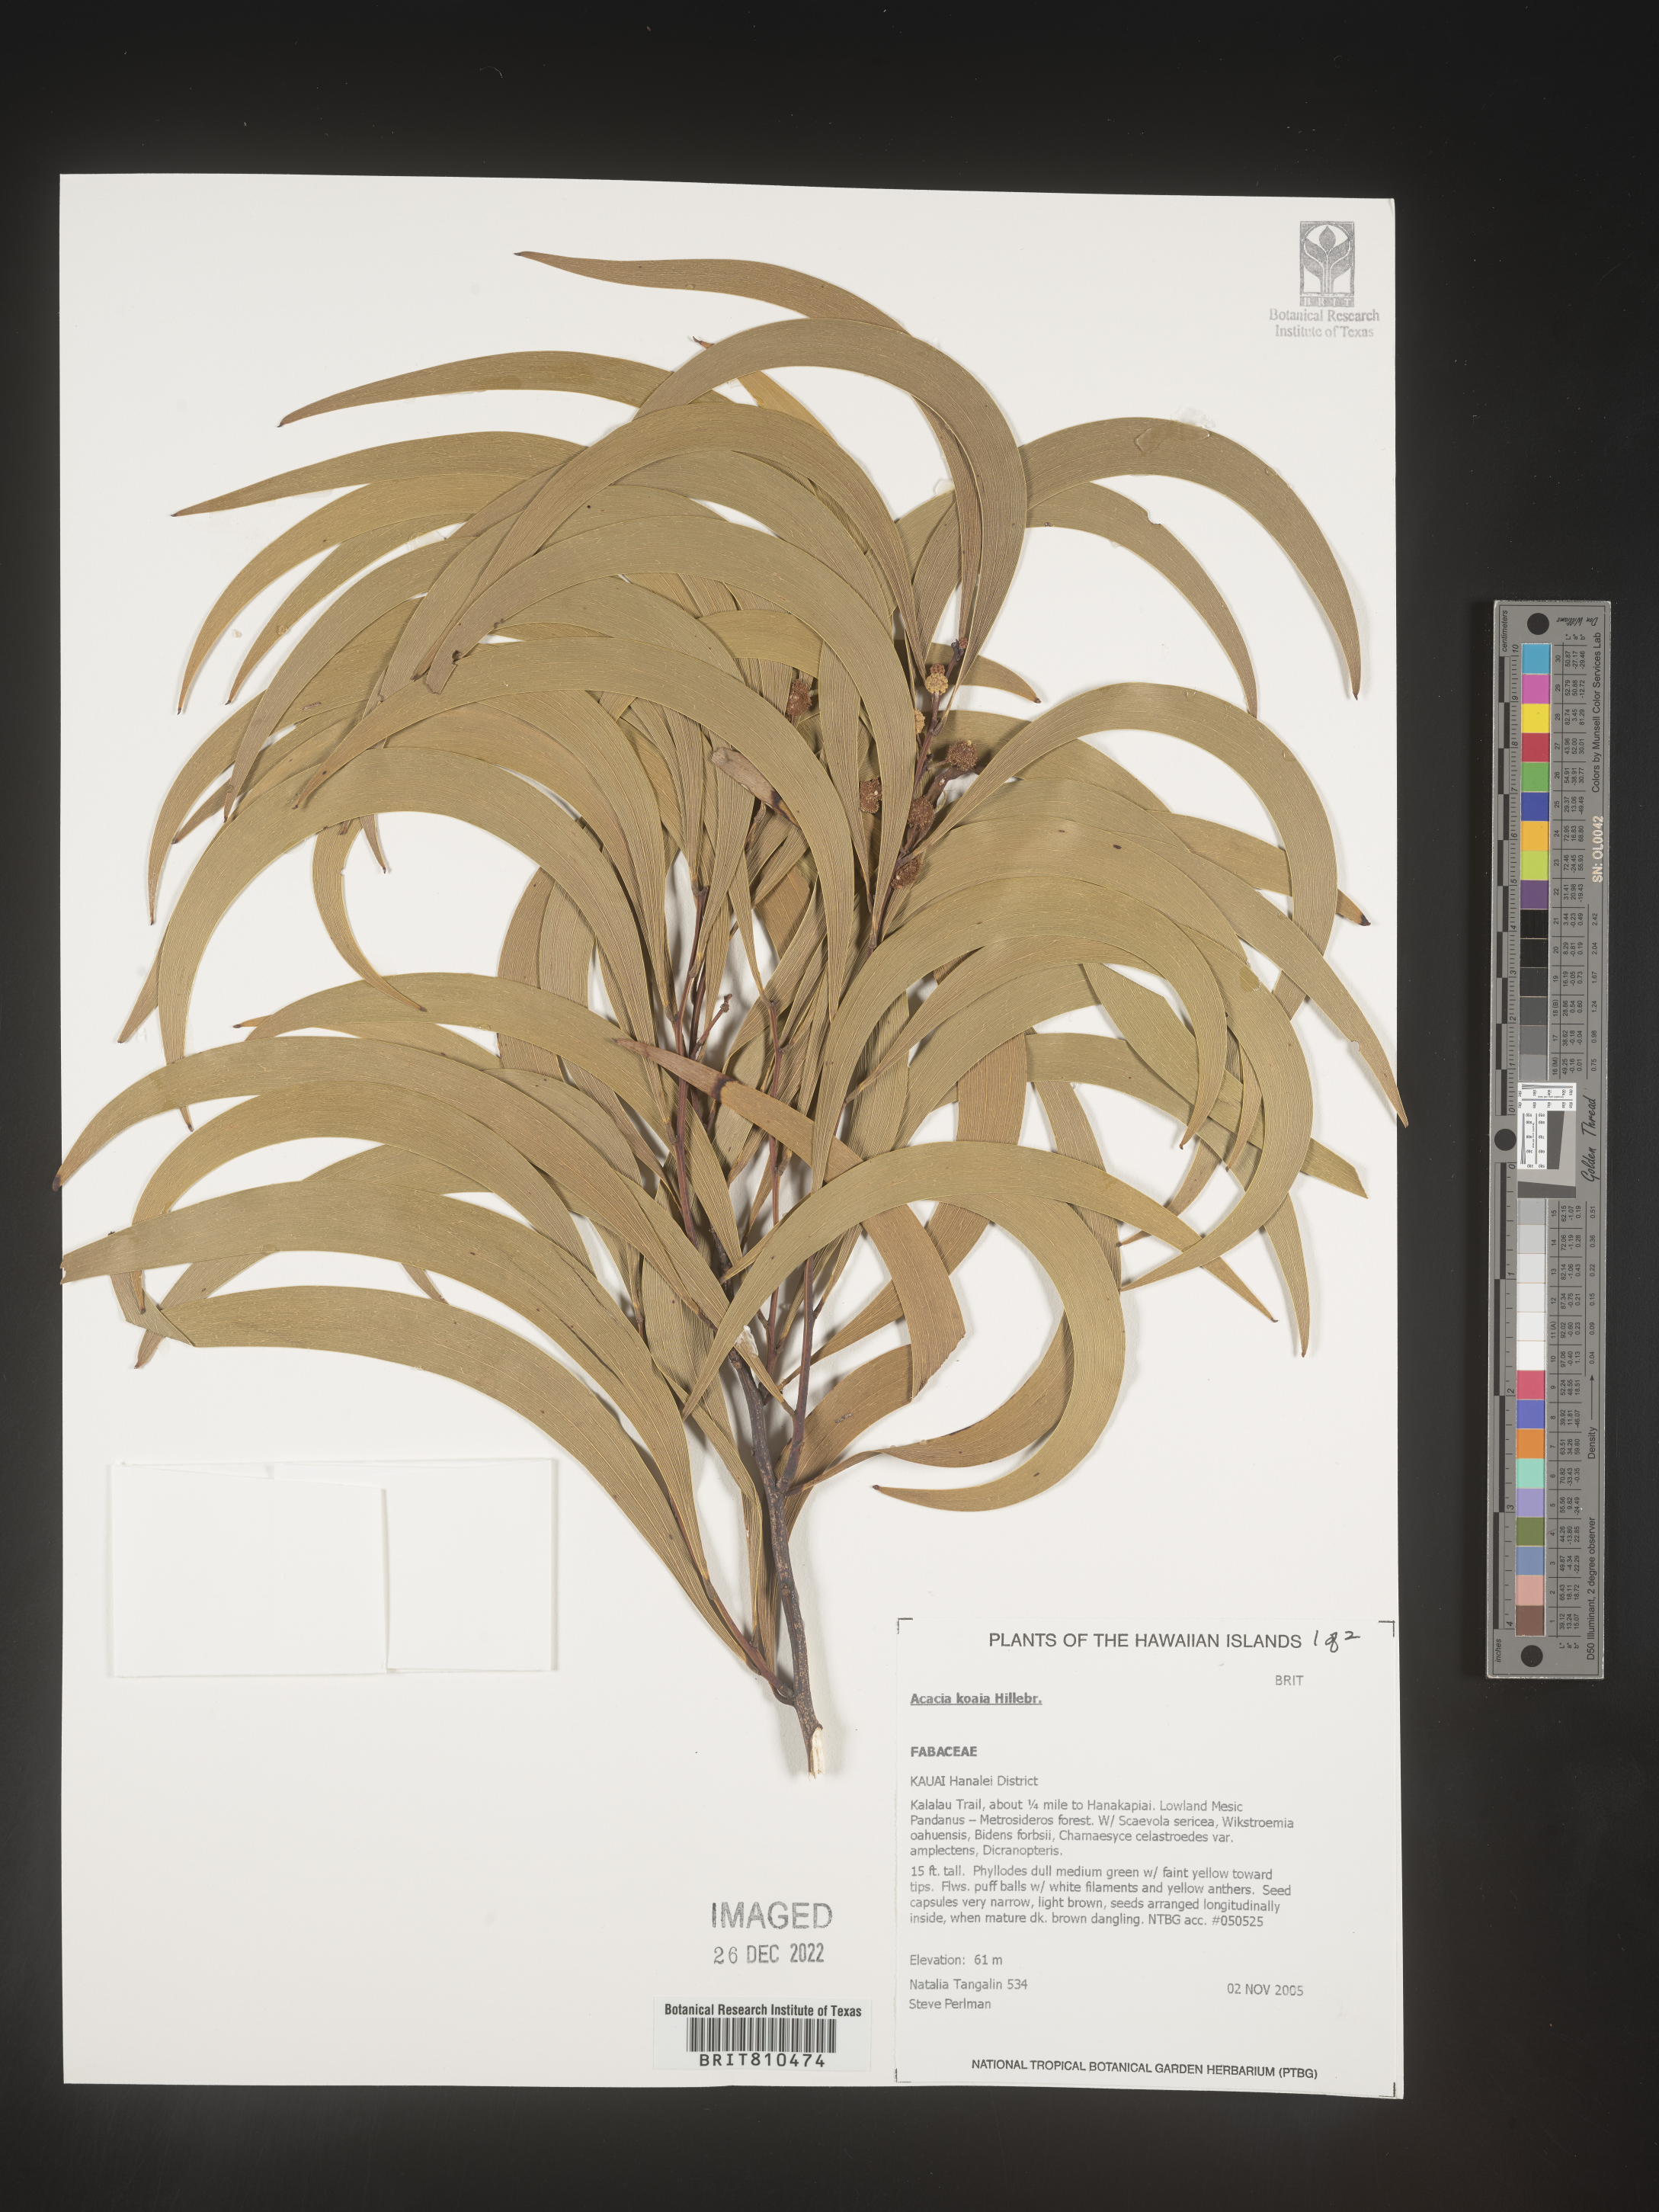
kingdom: Plantae
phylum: Tracheophyta
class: Magnoliopsida
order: Fabales
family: Fabaceae
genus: Acacia
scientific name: Acacia
